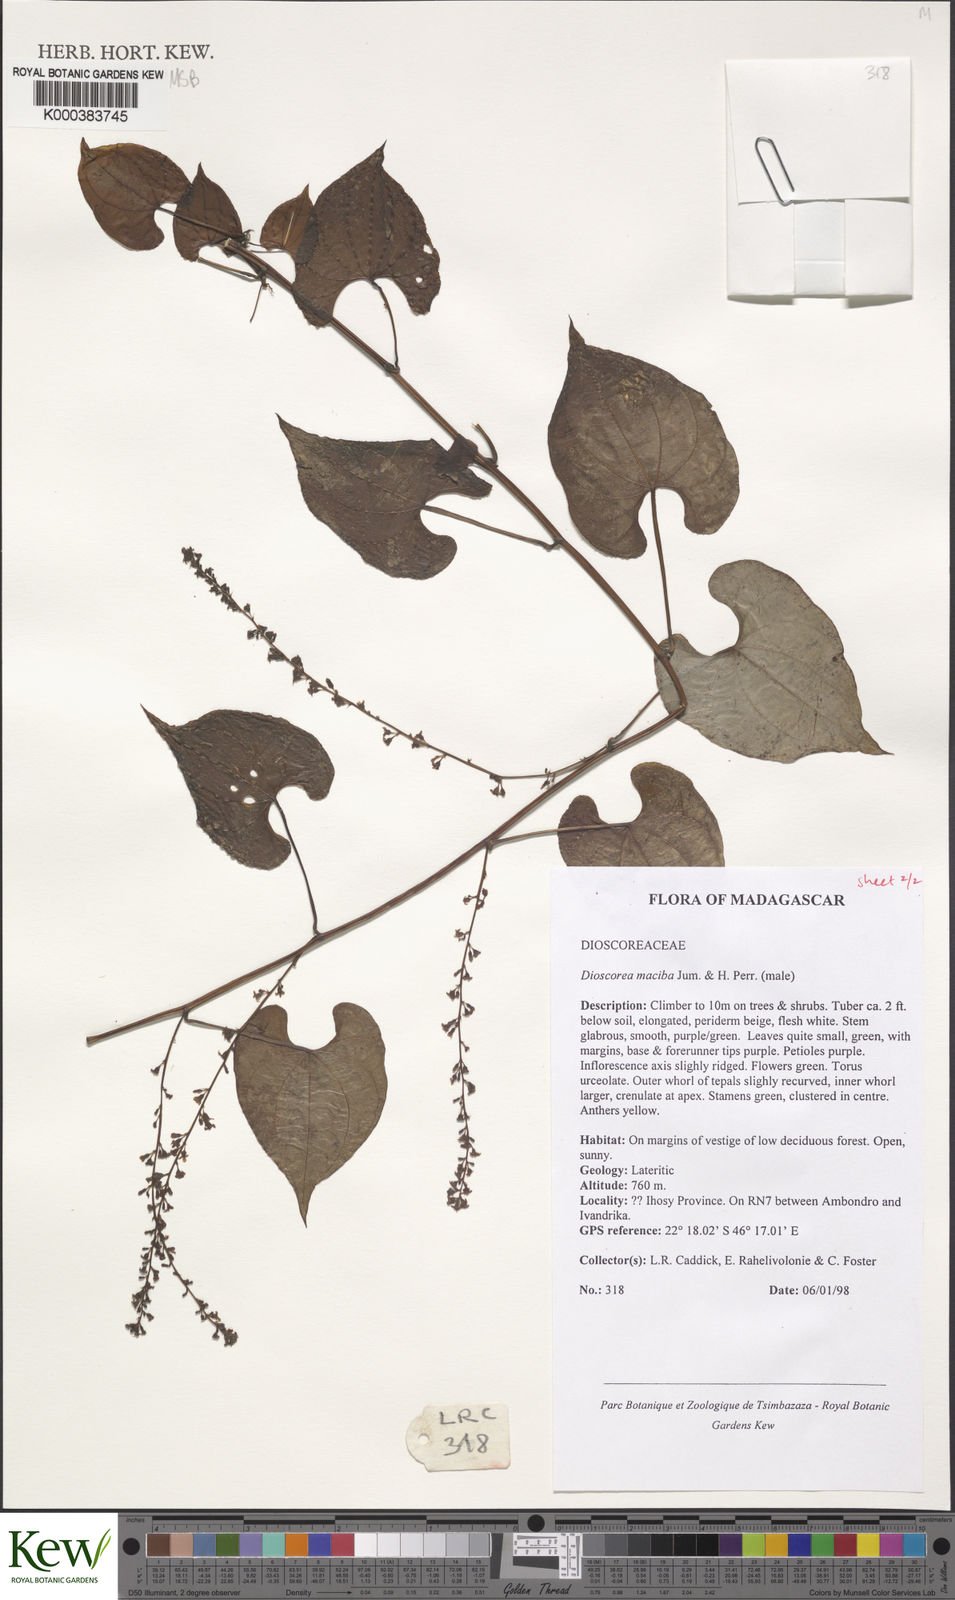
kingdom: Plantae
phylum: Tracheophyta
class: Liliopsida
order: Dioscoreales
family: Dioscoreaceae
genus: Dioscorea
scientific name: Dioscorea
